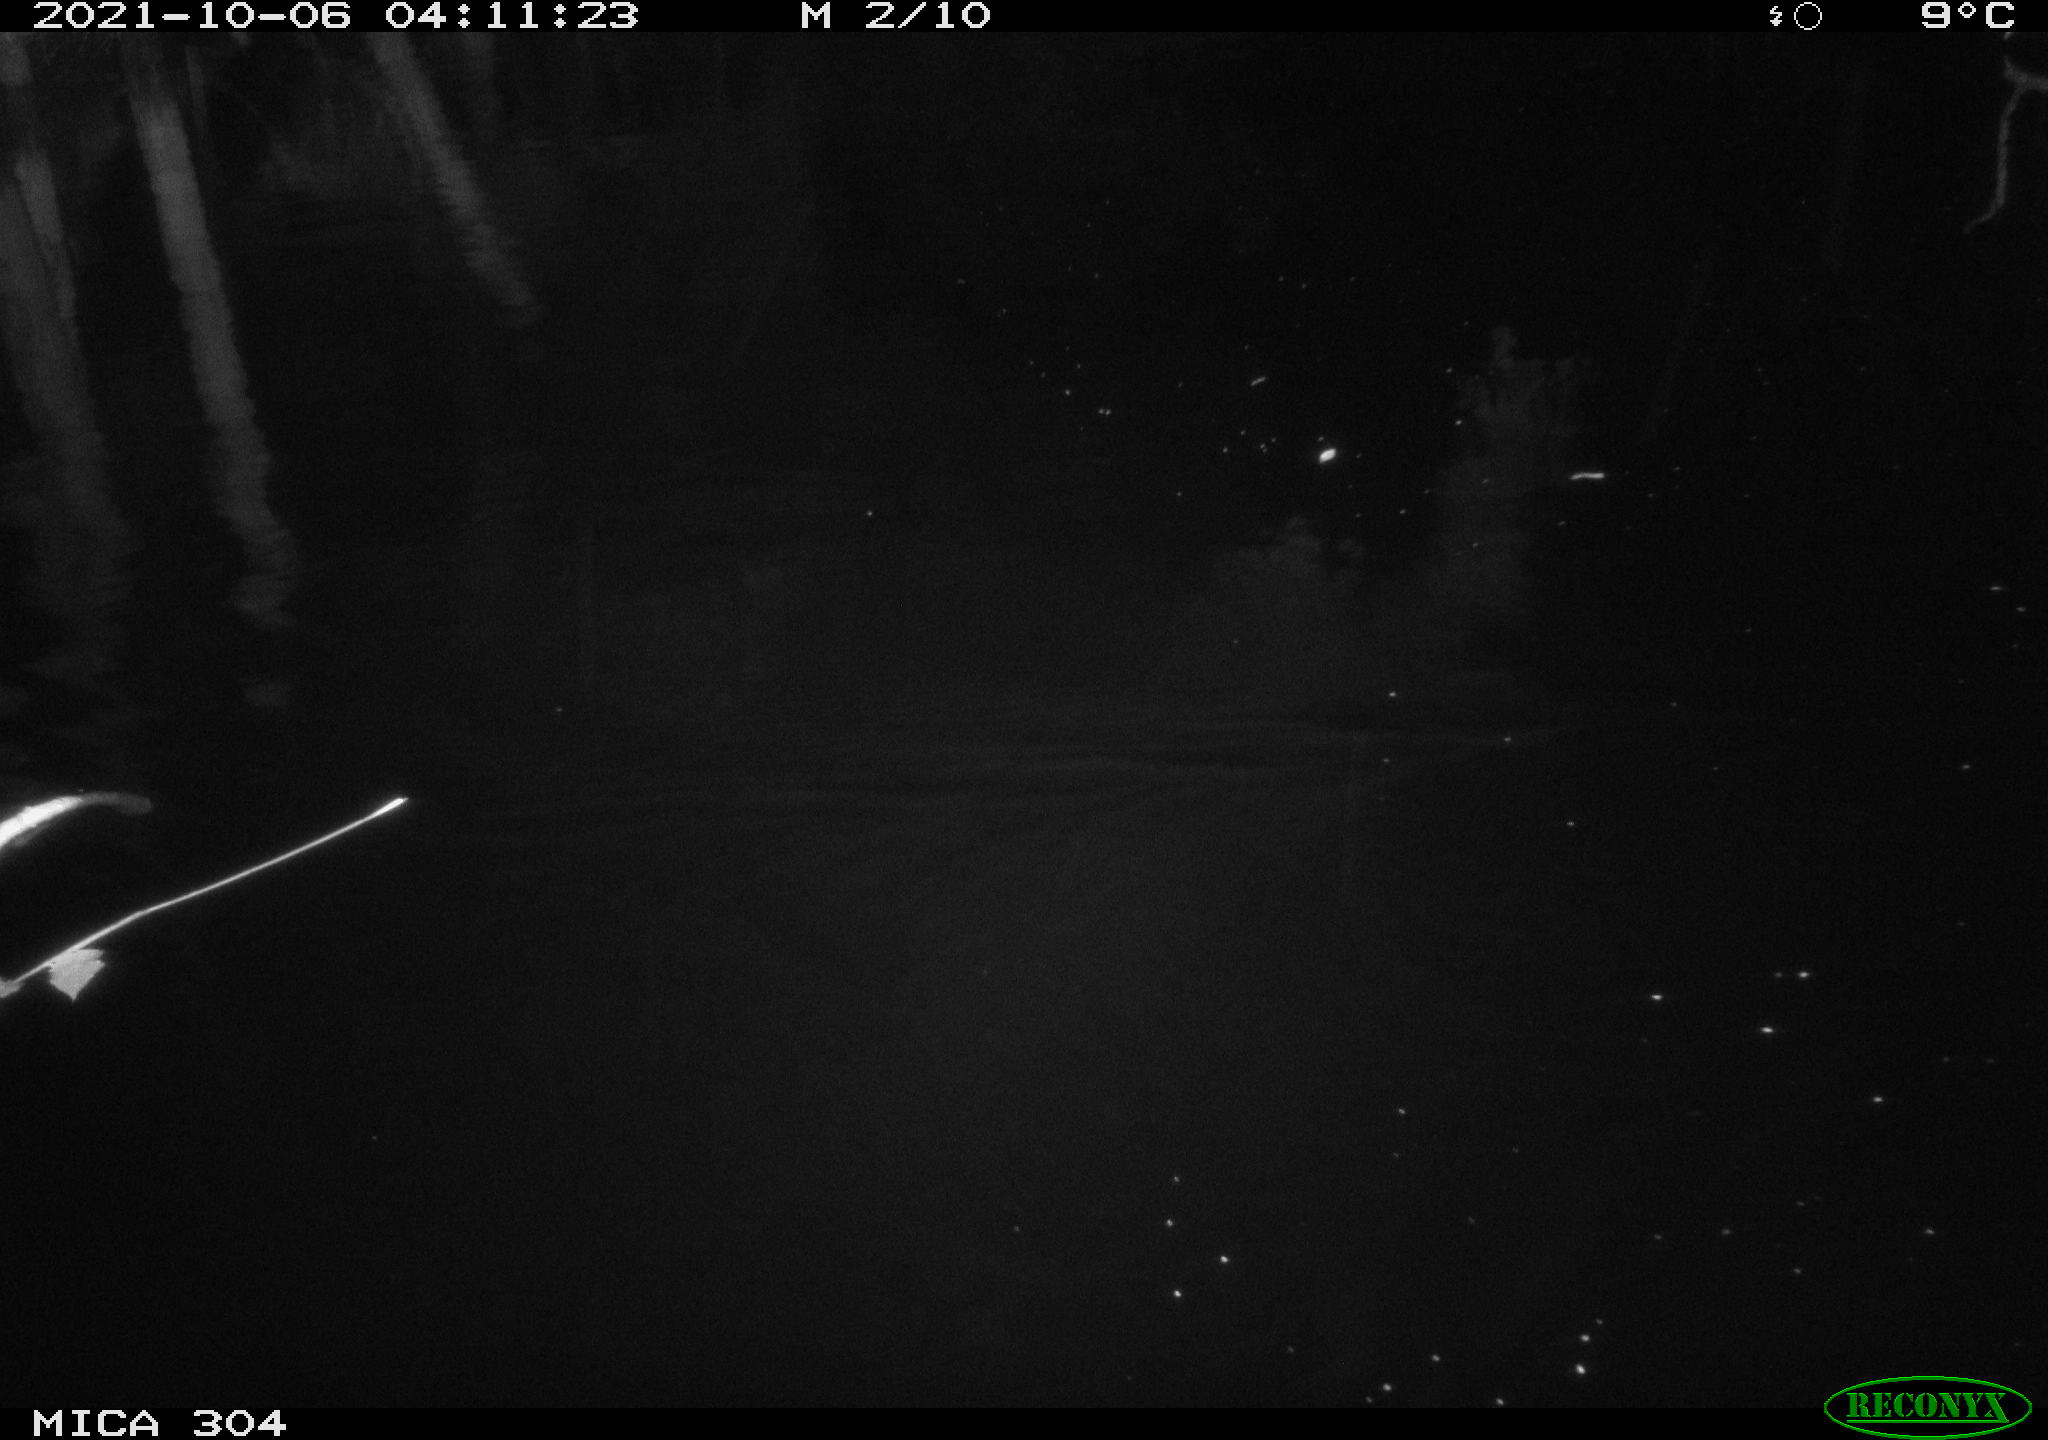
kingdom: Animalia
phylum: Chordata
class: Mammalia
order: Rodentia
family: Cricetidae
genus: Ondatra
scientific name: Ondatra zibethicus
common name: Muskrat
